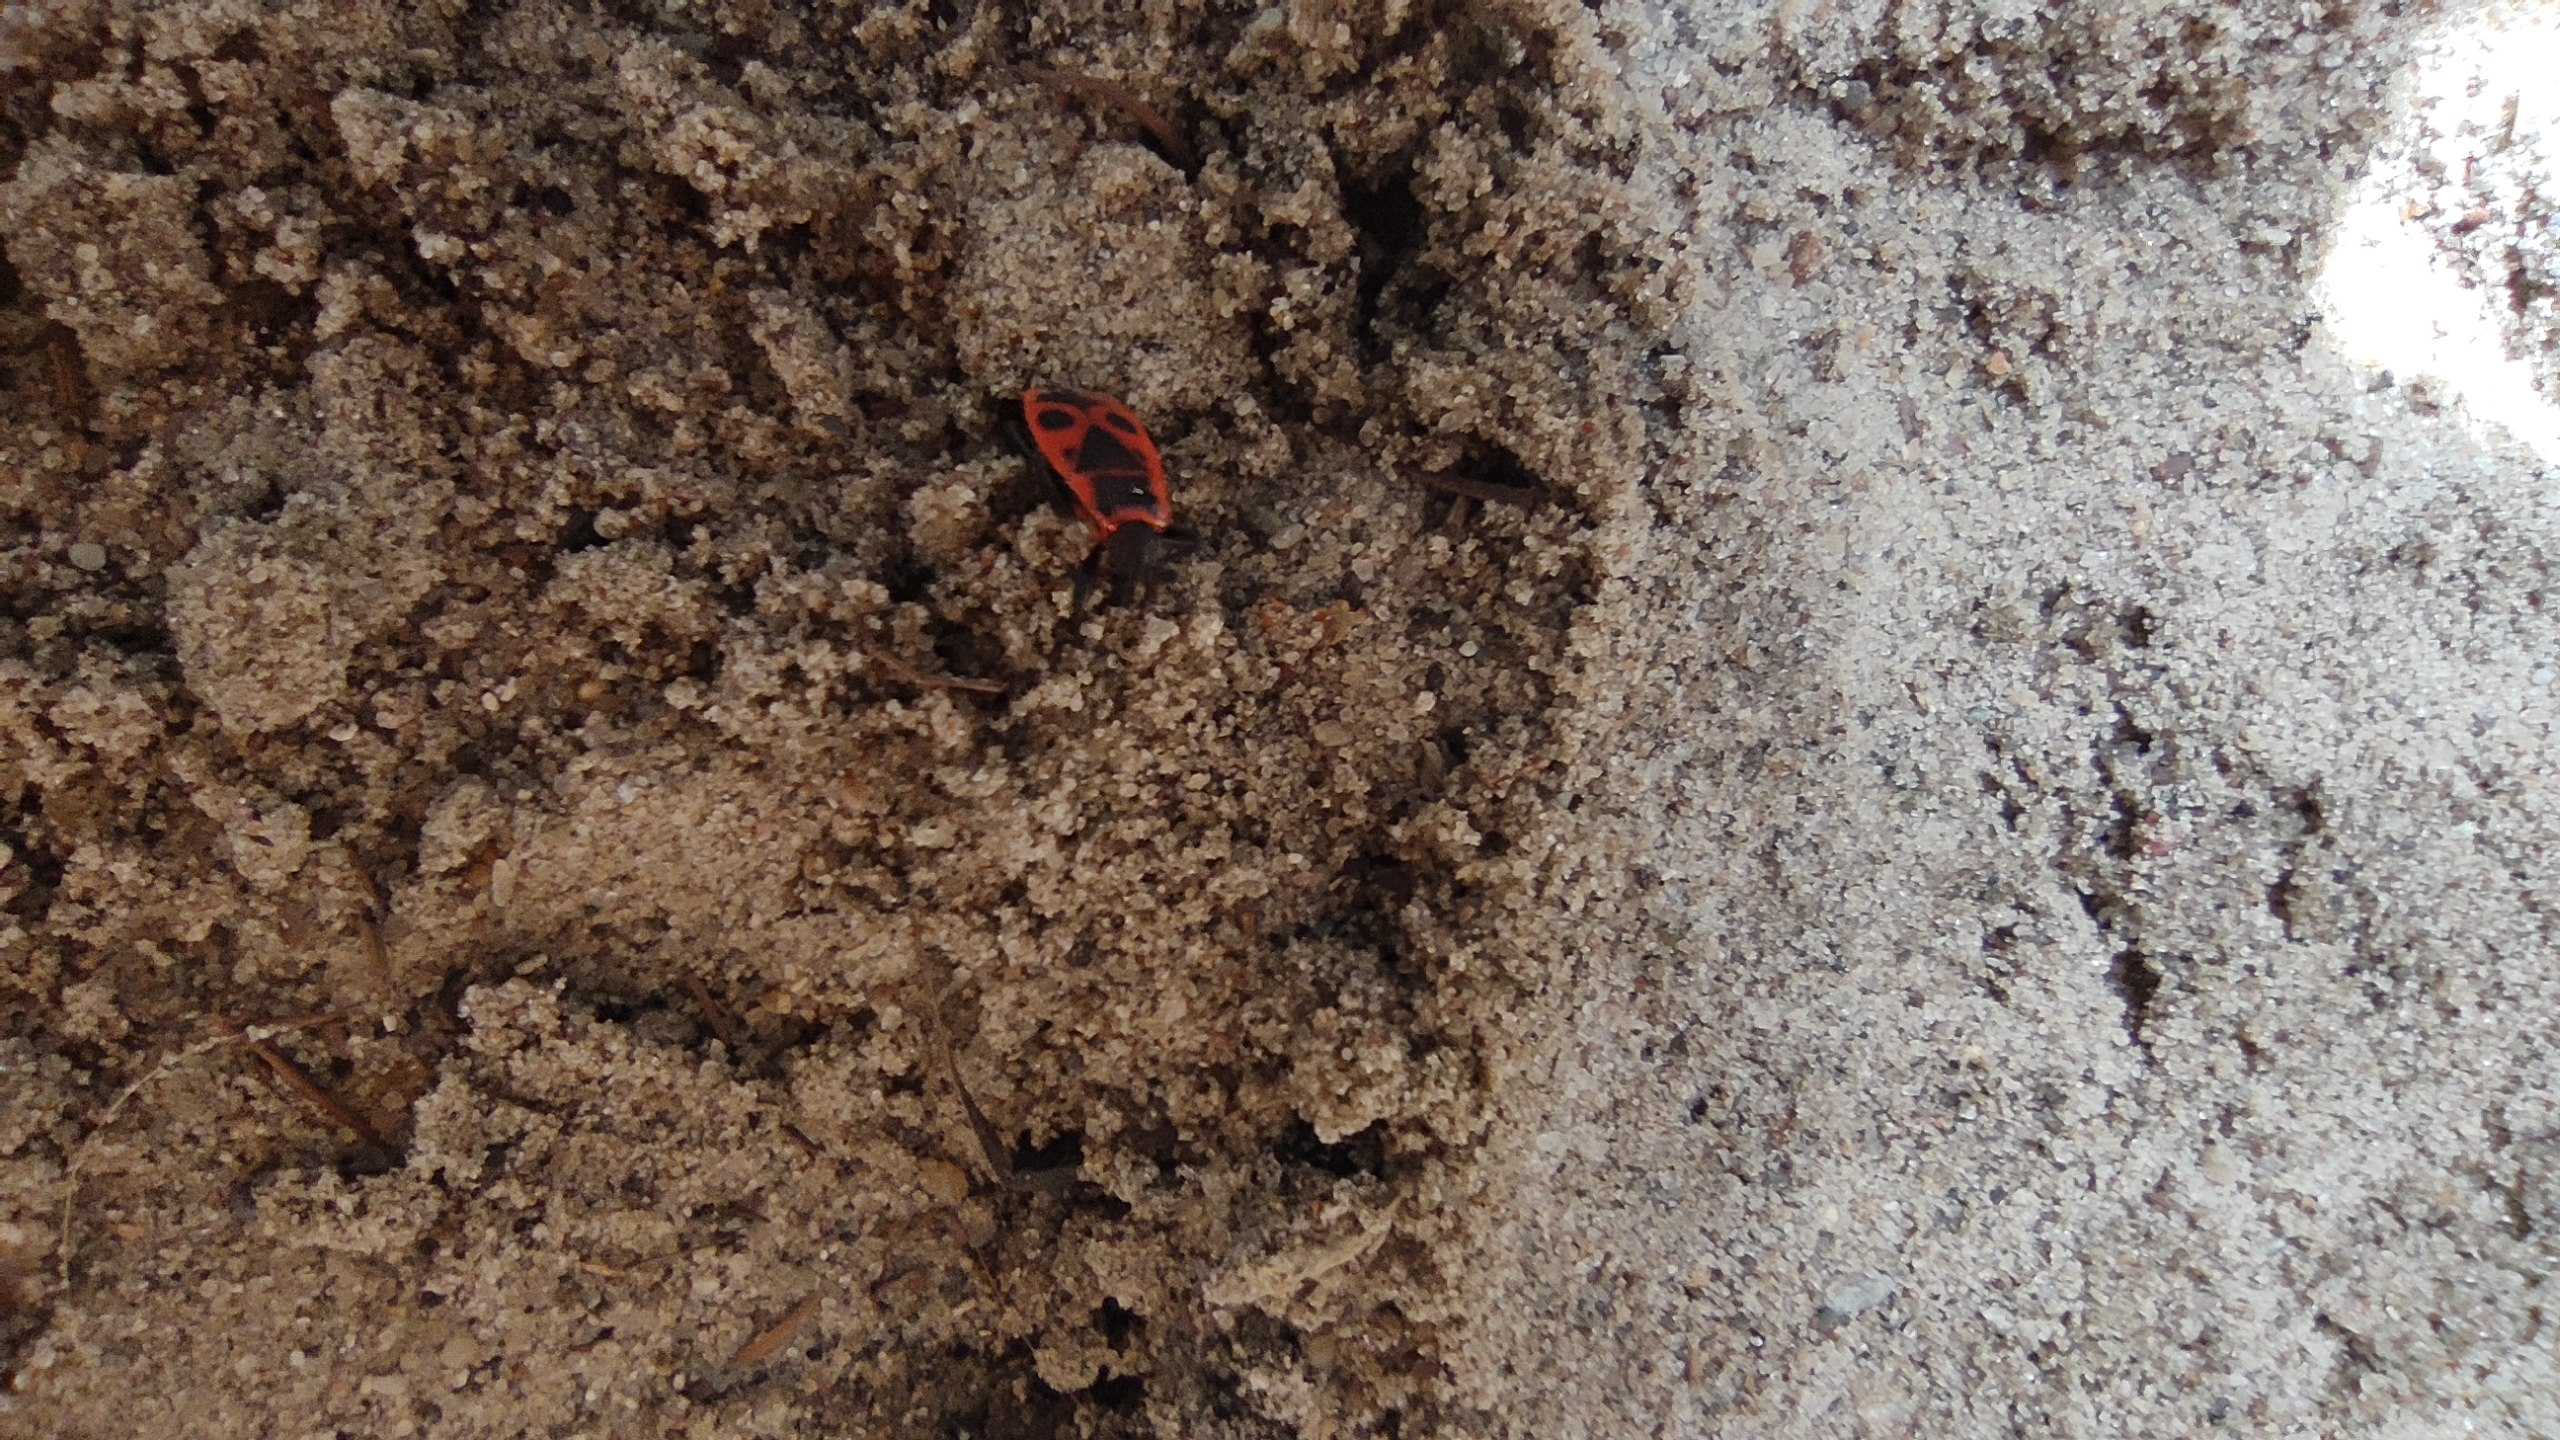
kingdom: Animalia
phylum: Arthropoda
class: Insecta
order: Hemiptera
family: Pyrrhocoridae
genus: Pyrrhocoris
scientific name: Pyrrhocoris apterus
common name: Ildtæge
